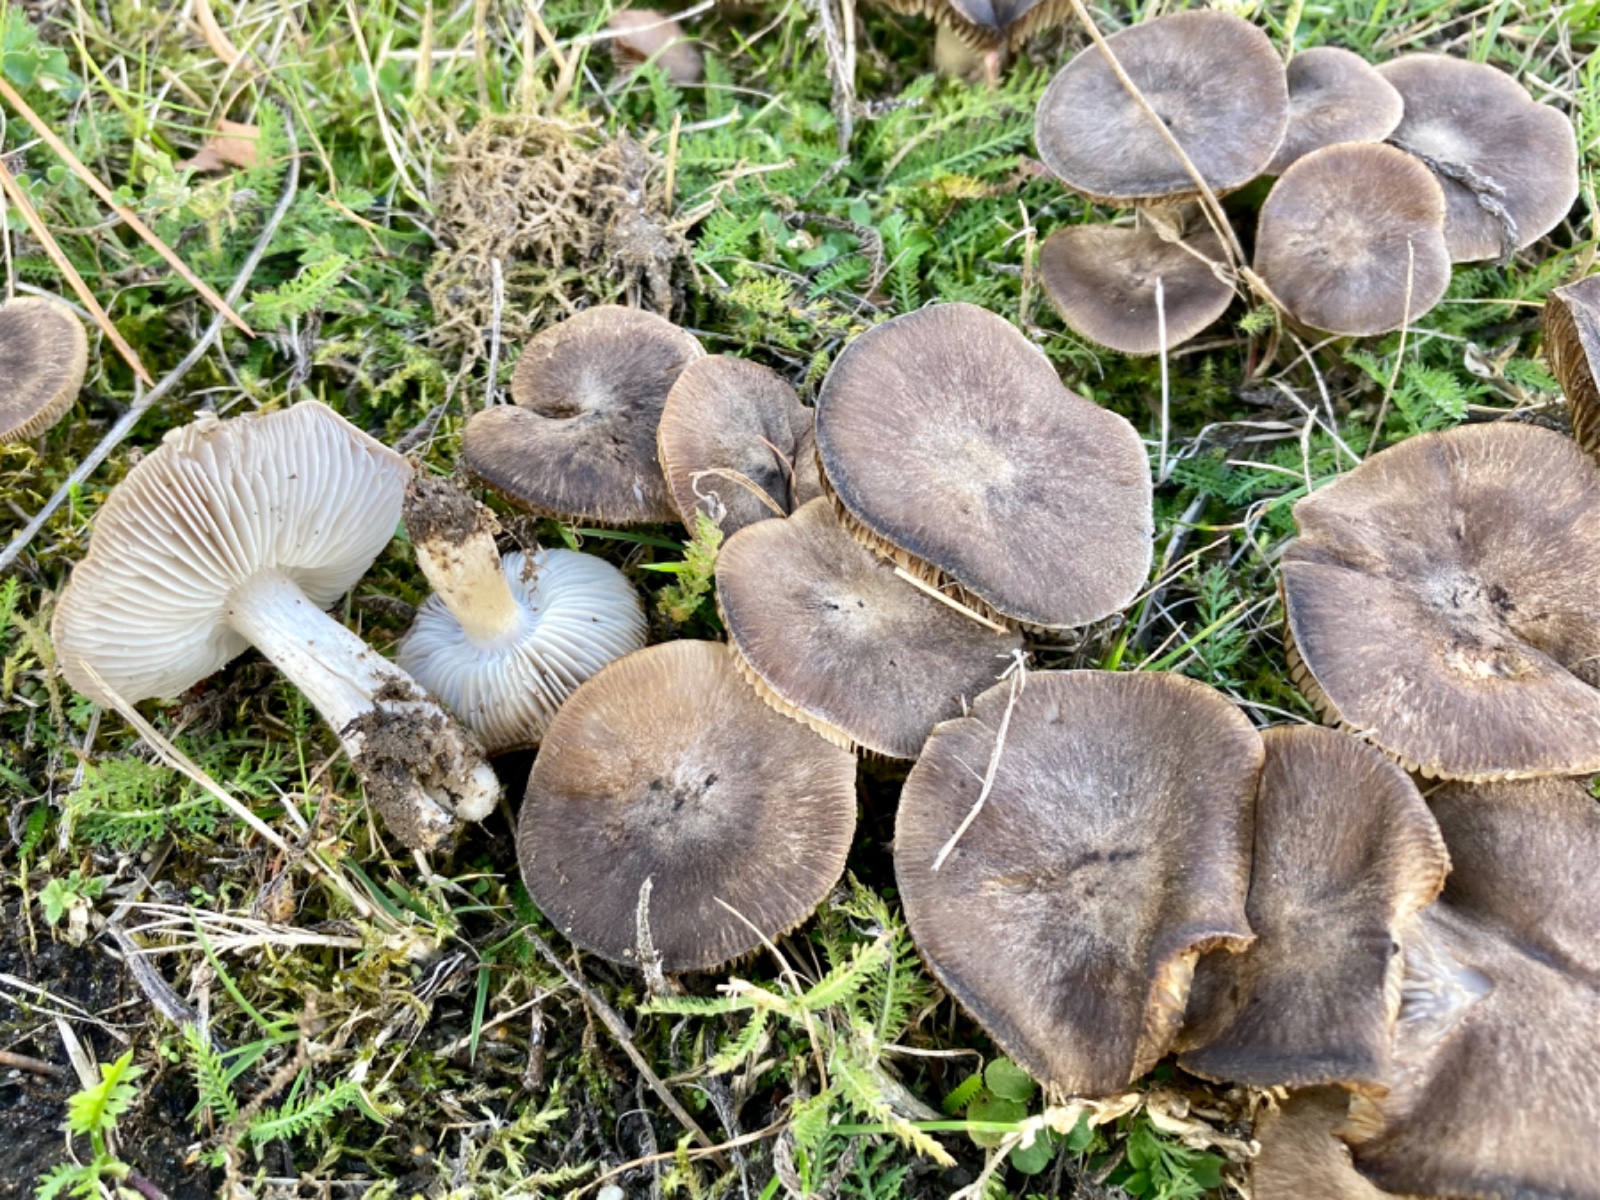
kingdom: Fungi
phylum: Basidiomycota
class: Agaricomycetes
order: Agaricales
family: Tricholomataceae
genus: Tricholoma
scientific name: Tricholoma terreum
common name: jordfarvet ridderhat
